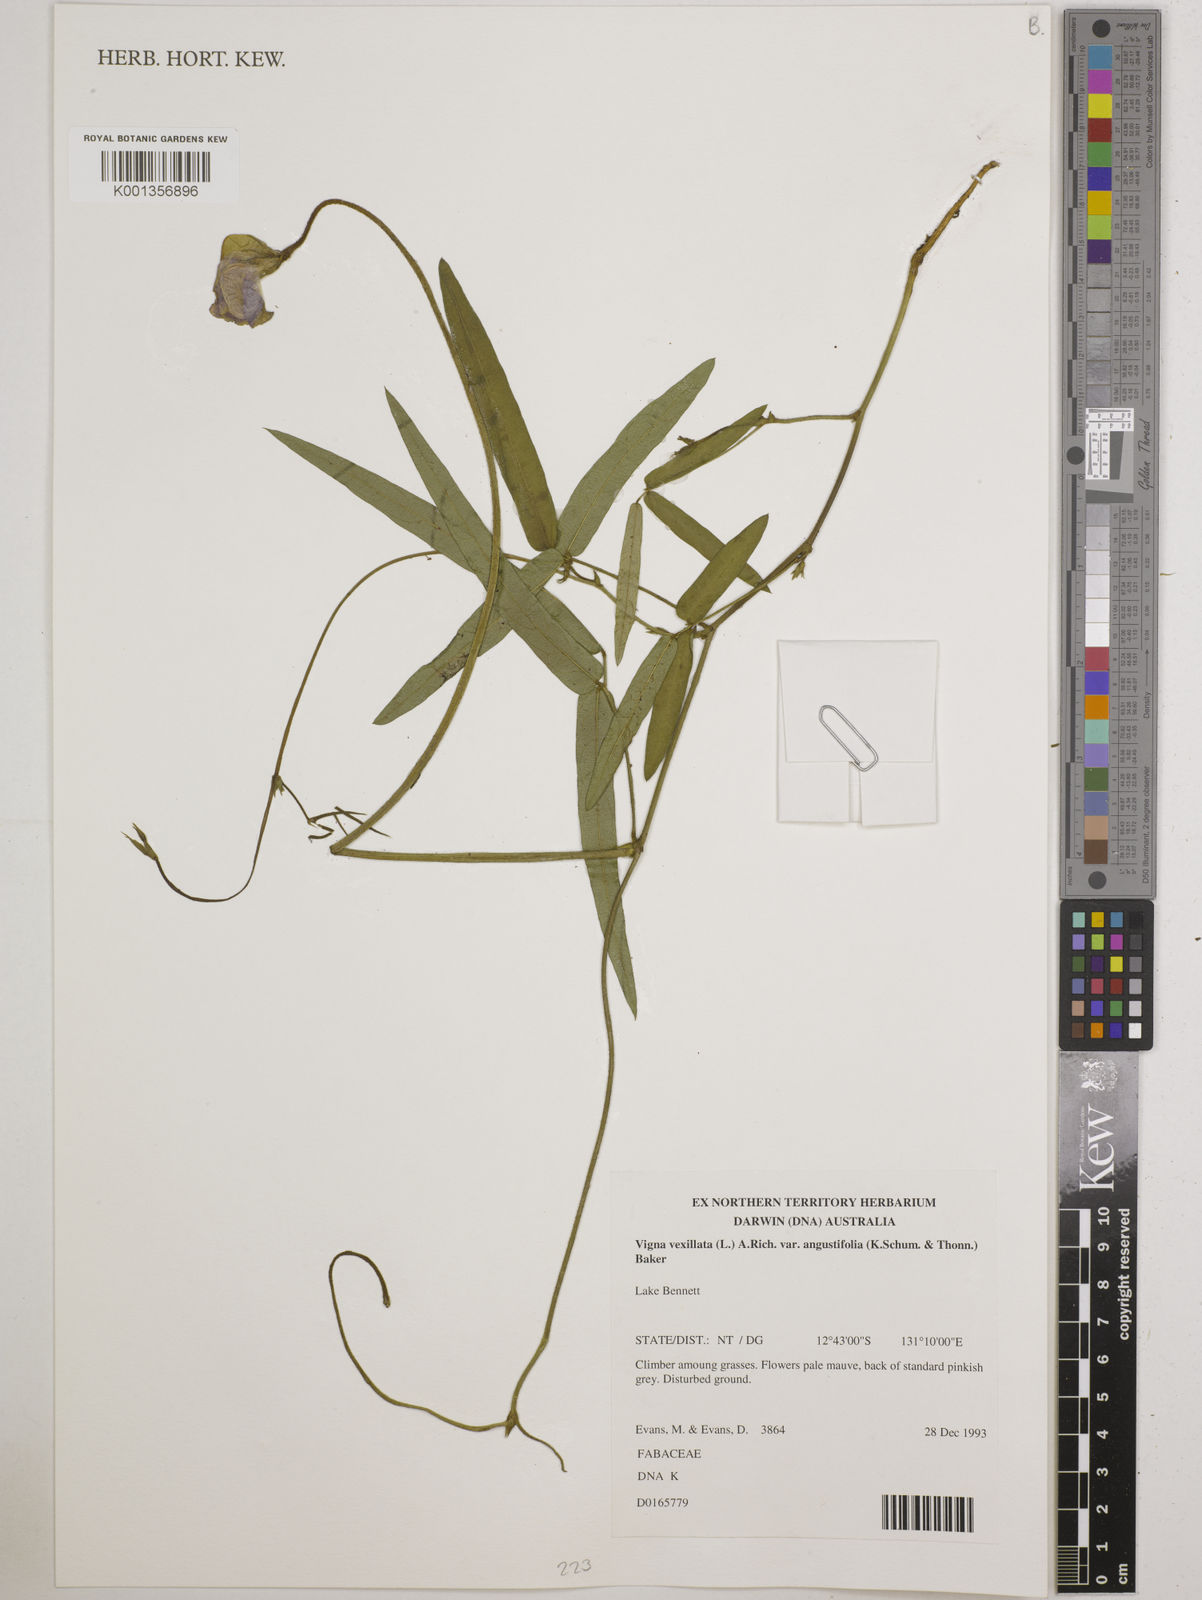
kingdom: Plantae
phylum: Tracheophyta
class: Magnoliopsida
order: Fabales
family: Fabaceae
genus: Vigna
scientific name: Vigna vexillata
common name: Zombi pea
